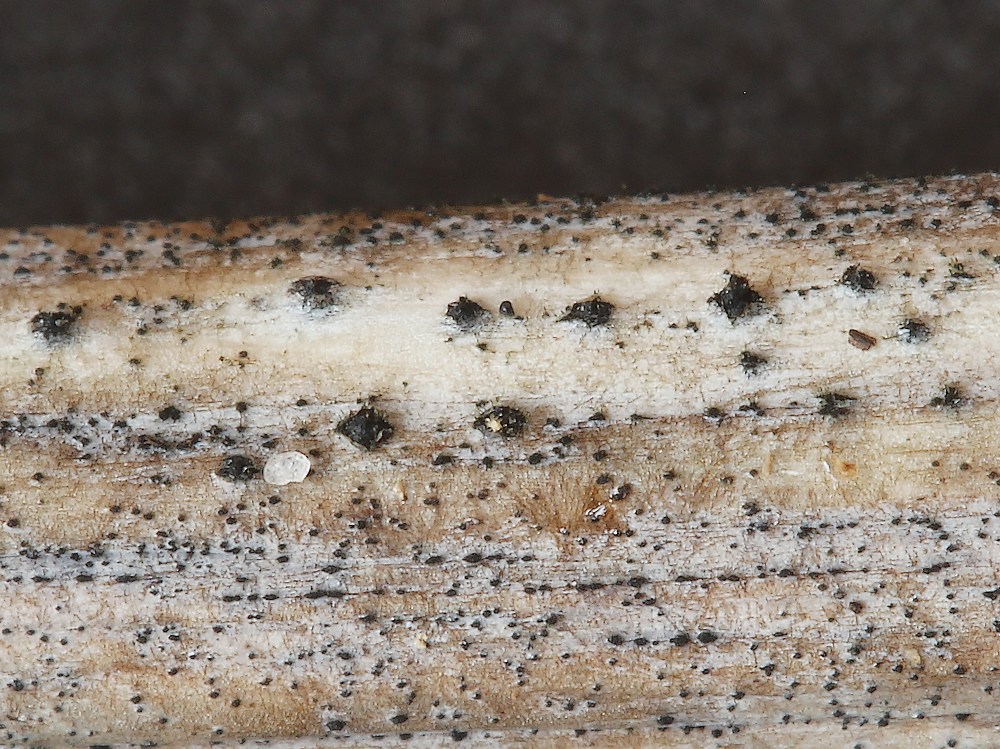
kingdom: Fungi
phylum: Ascomycota
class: Dothideomycetes
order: Pleosporales
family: Pleosporaceae
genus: Stemphylium
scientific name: Stemphylium vesicarium
